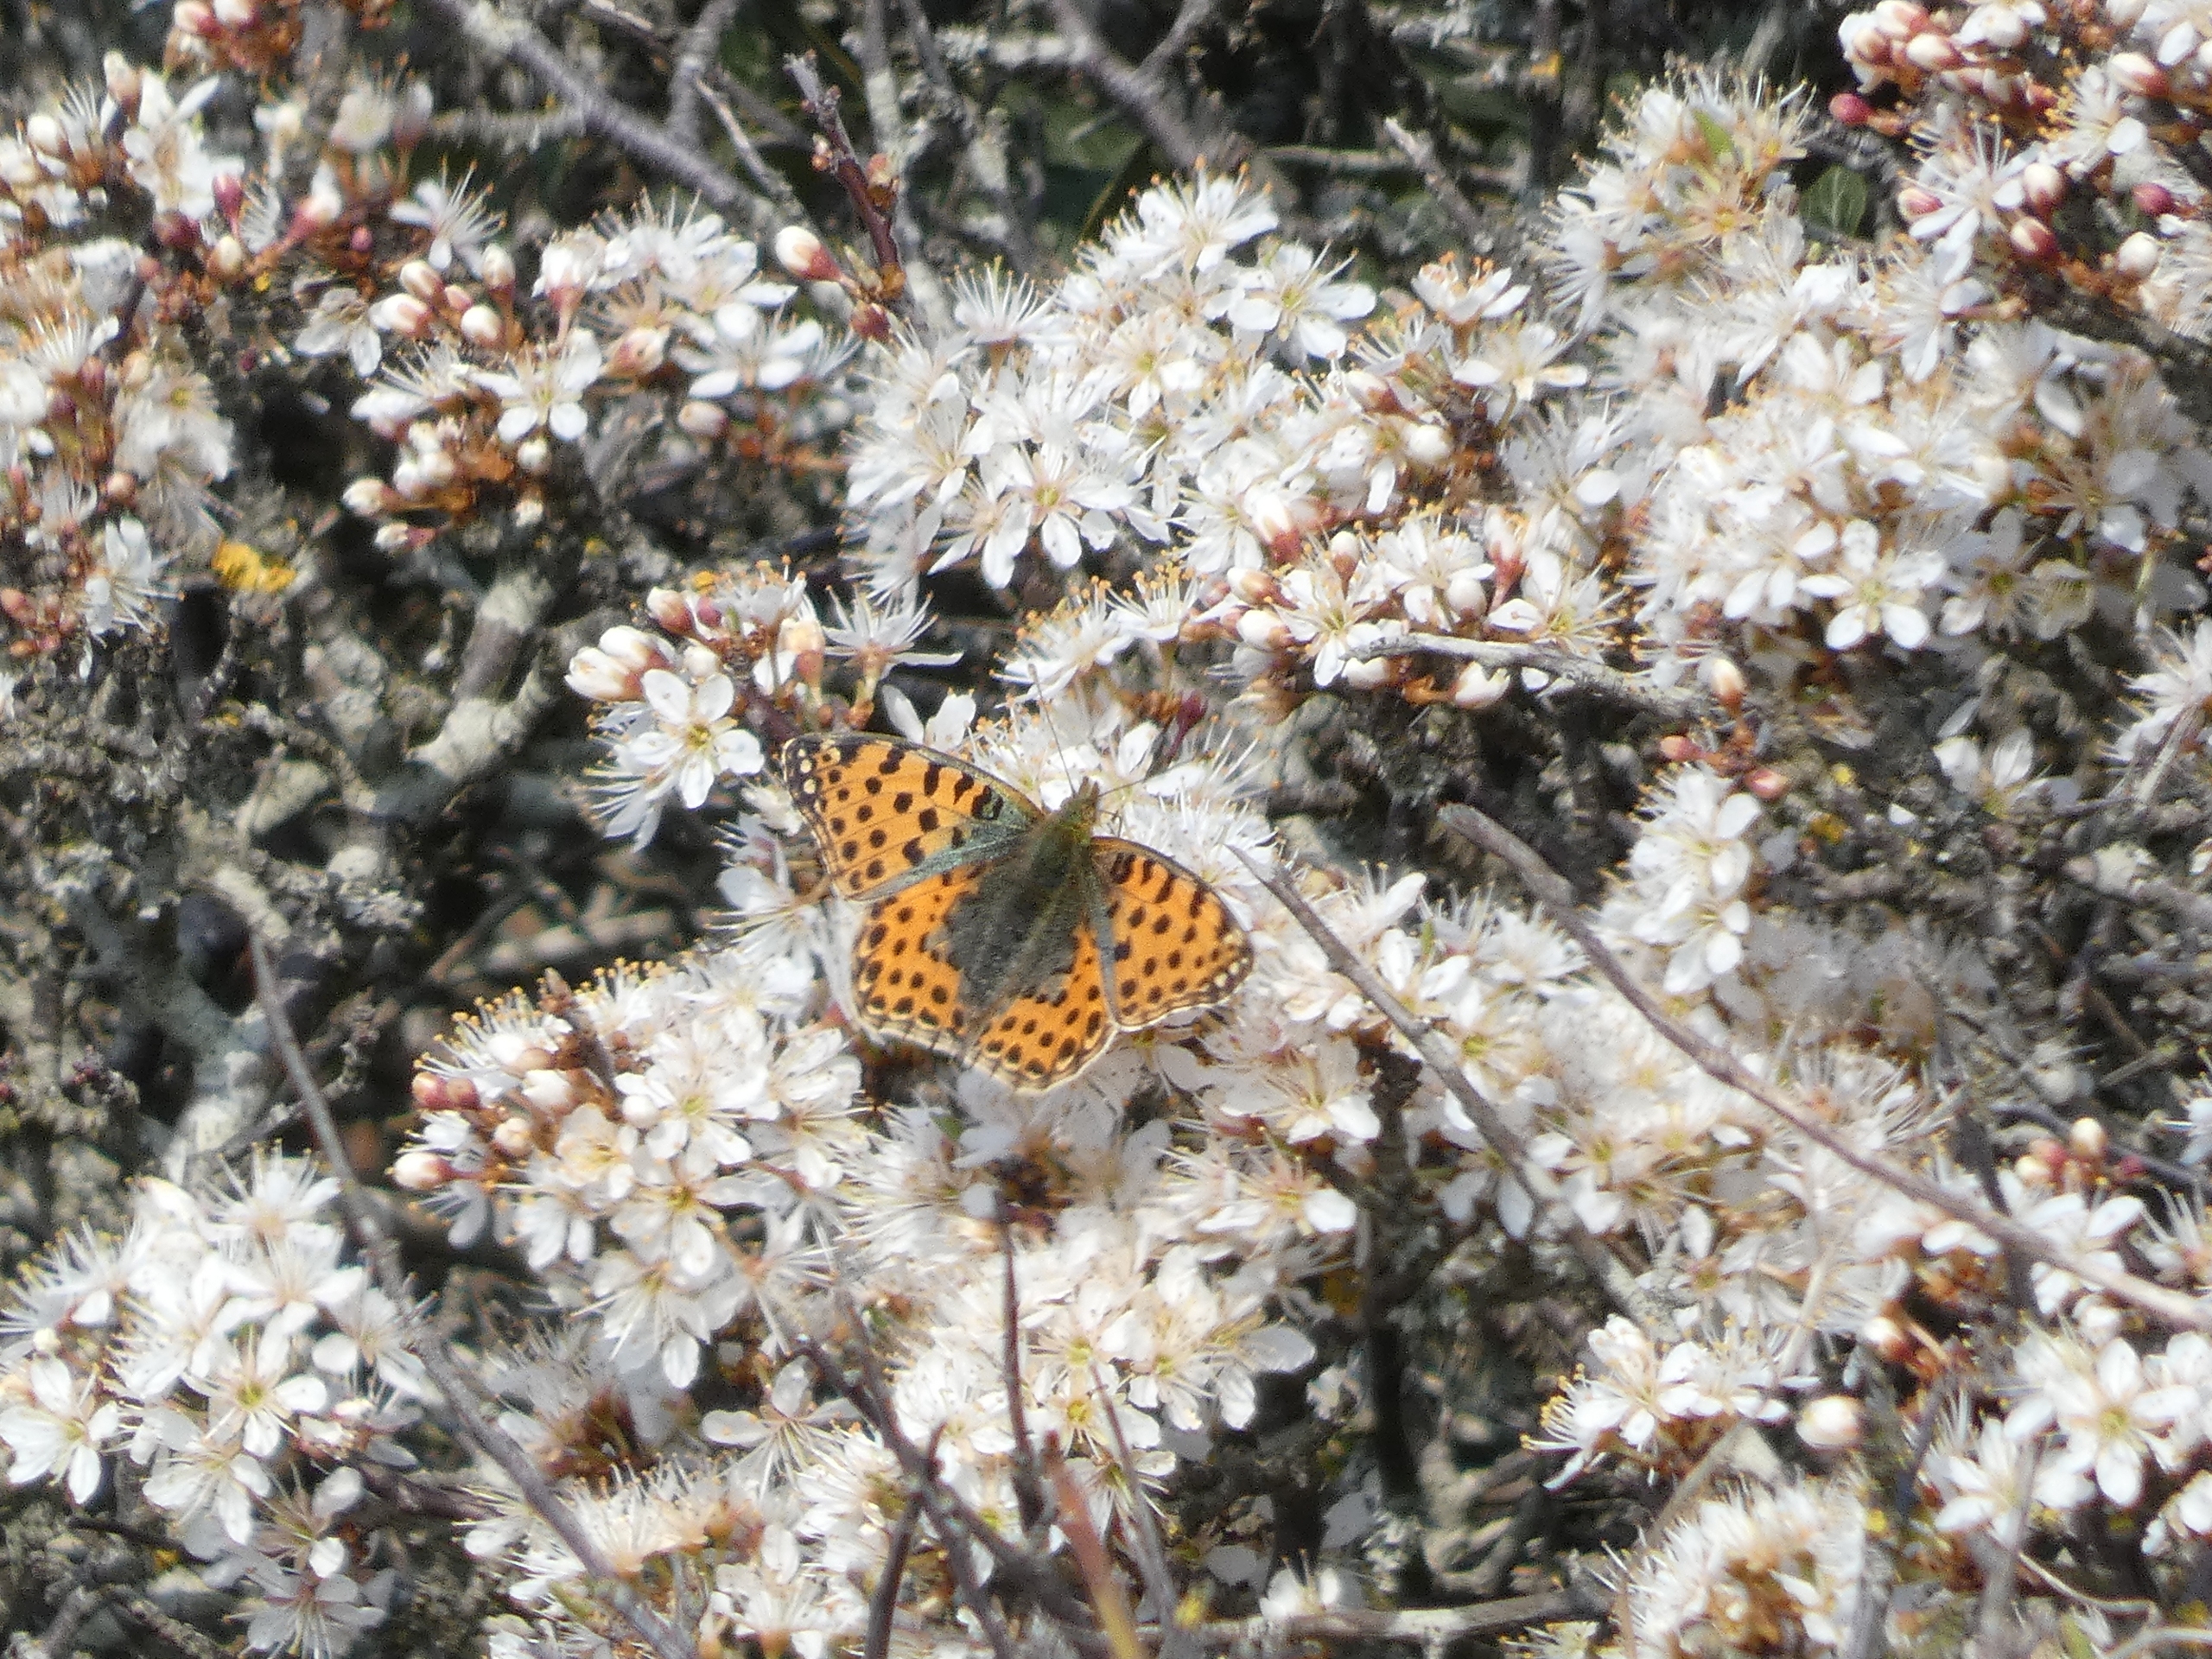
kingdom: Animalia
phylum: Arthropoda
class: Insecta
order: Lepidoptera
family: Nymphalidae
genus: Issoria
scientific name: Issoria lathonia
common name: Storplettet perlemorsommerfugl
